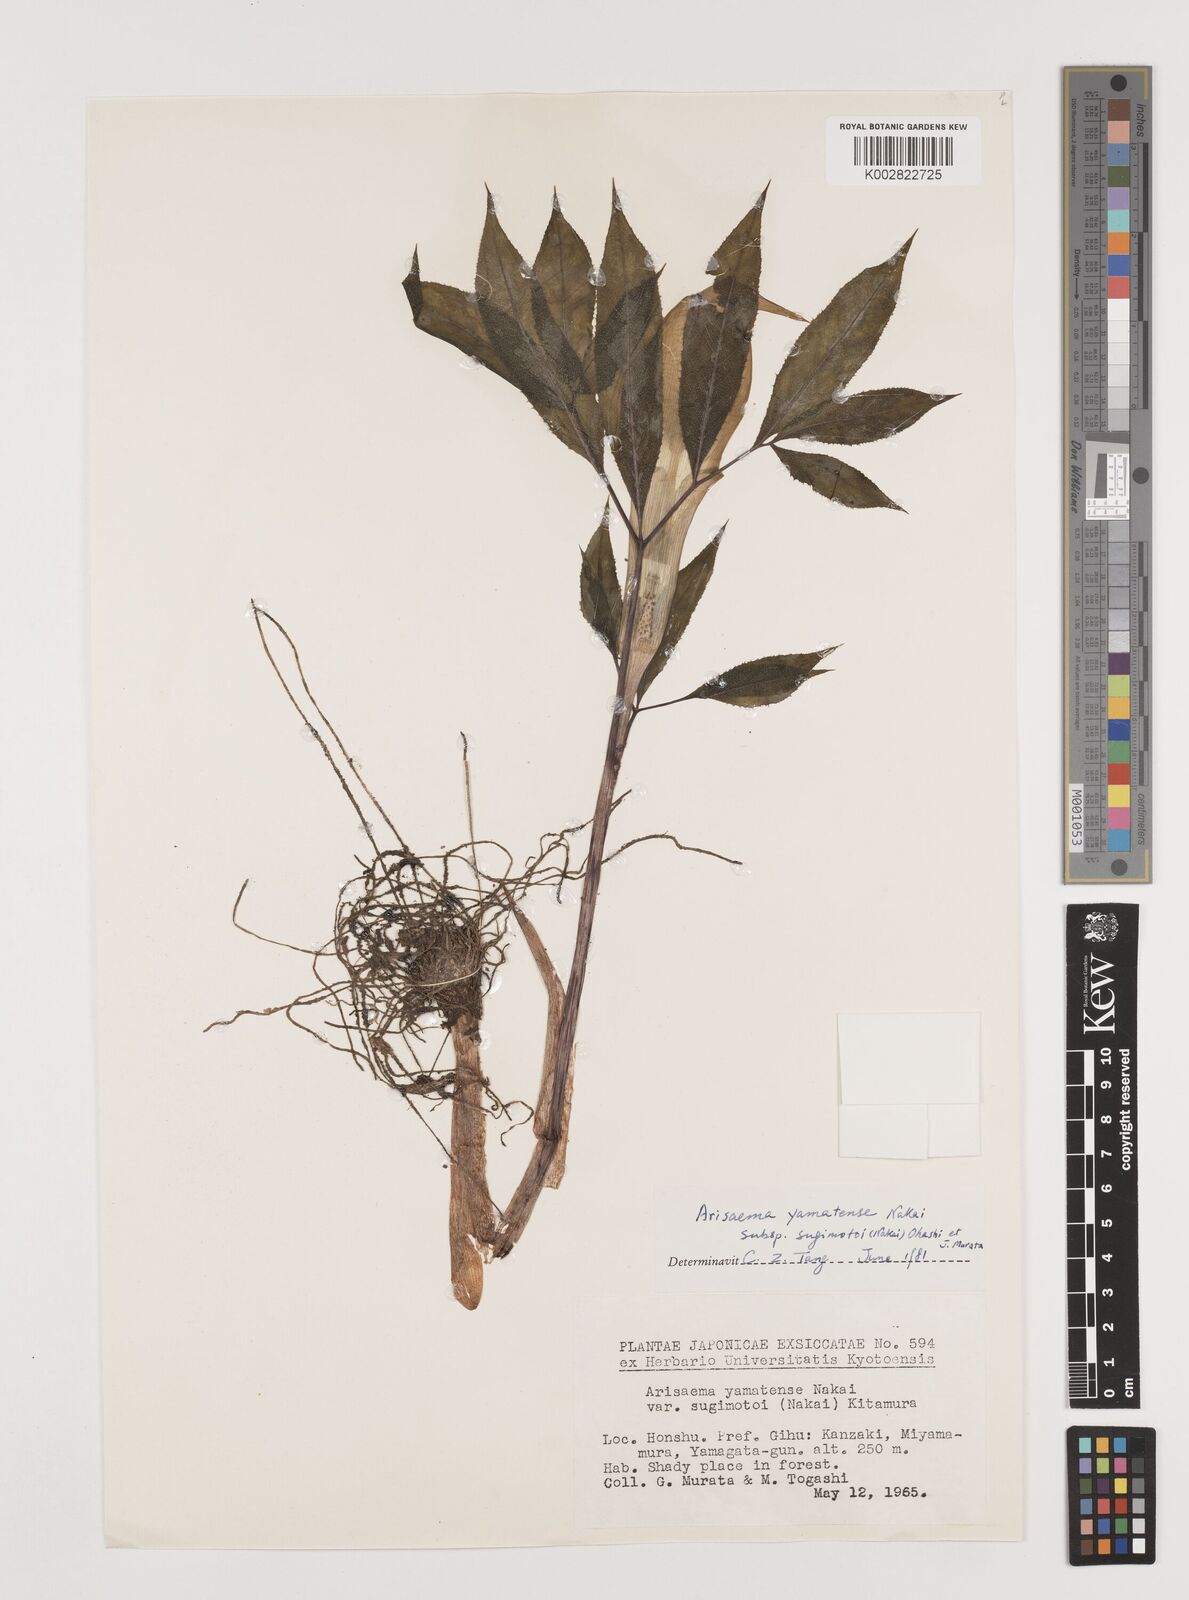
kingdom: Plantae
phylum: Tracheophyta
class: Liliopsida
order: Alismatales
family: Araceae
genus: Arisaema
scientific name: Arisaema yamatense
